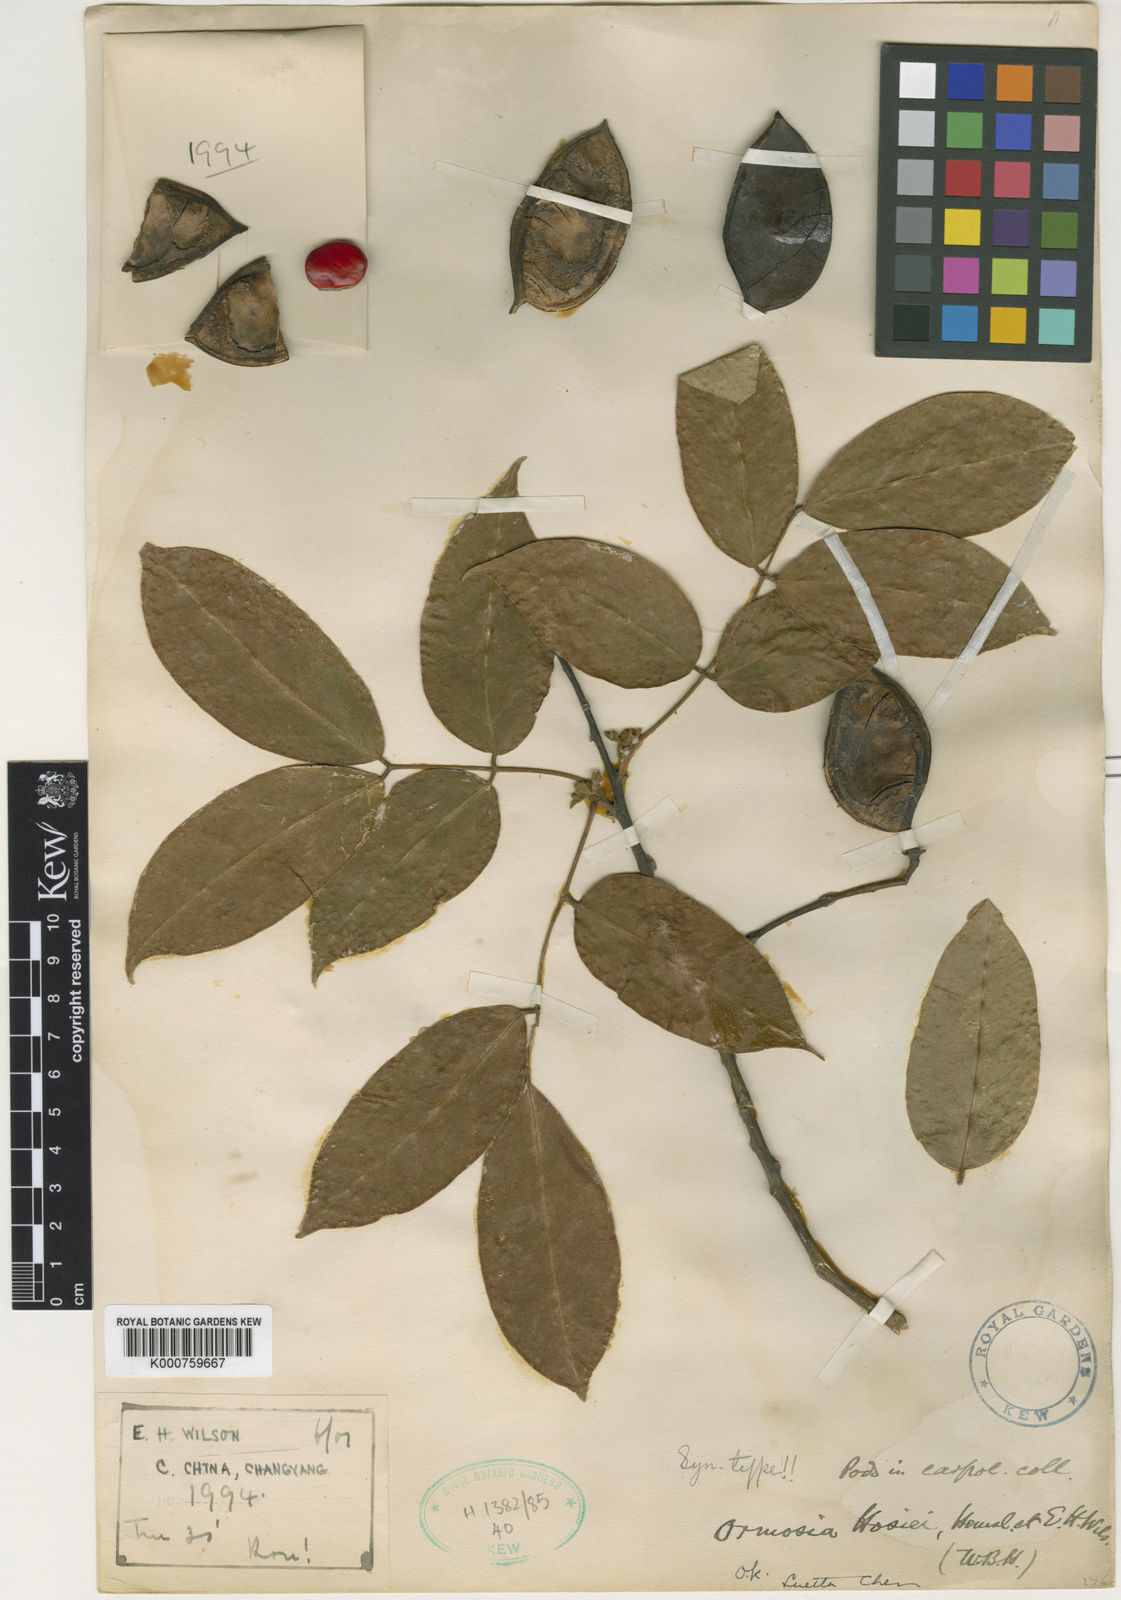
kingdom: Plantae
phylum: Tracheophyta
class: Magnoliopsida
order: Fabales
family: Fabaceae
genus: Ormosia
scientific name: Ormosia hosiei
